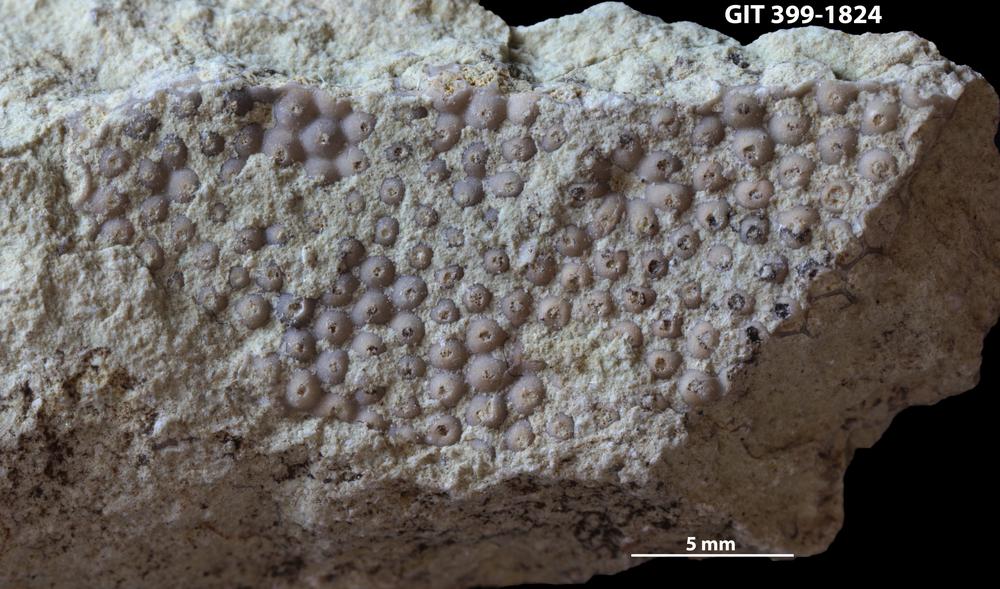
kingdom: Plantae
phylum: Chlorophyta
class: Ulvophyceae
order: Cyclocrinales
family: Cyclocrinaceae
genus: Mastopora
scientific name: Mastopora concava
